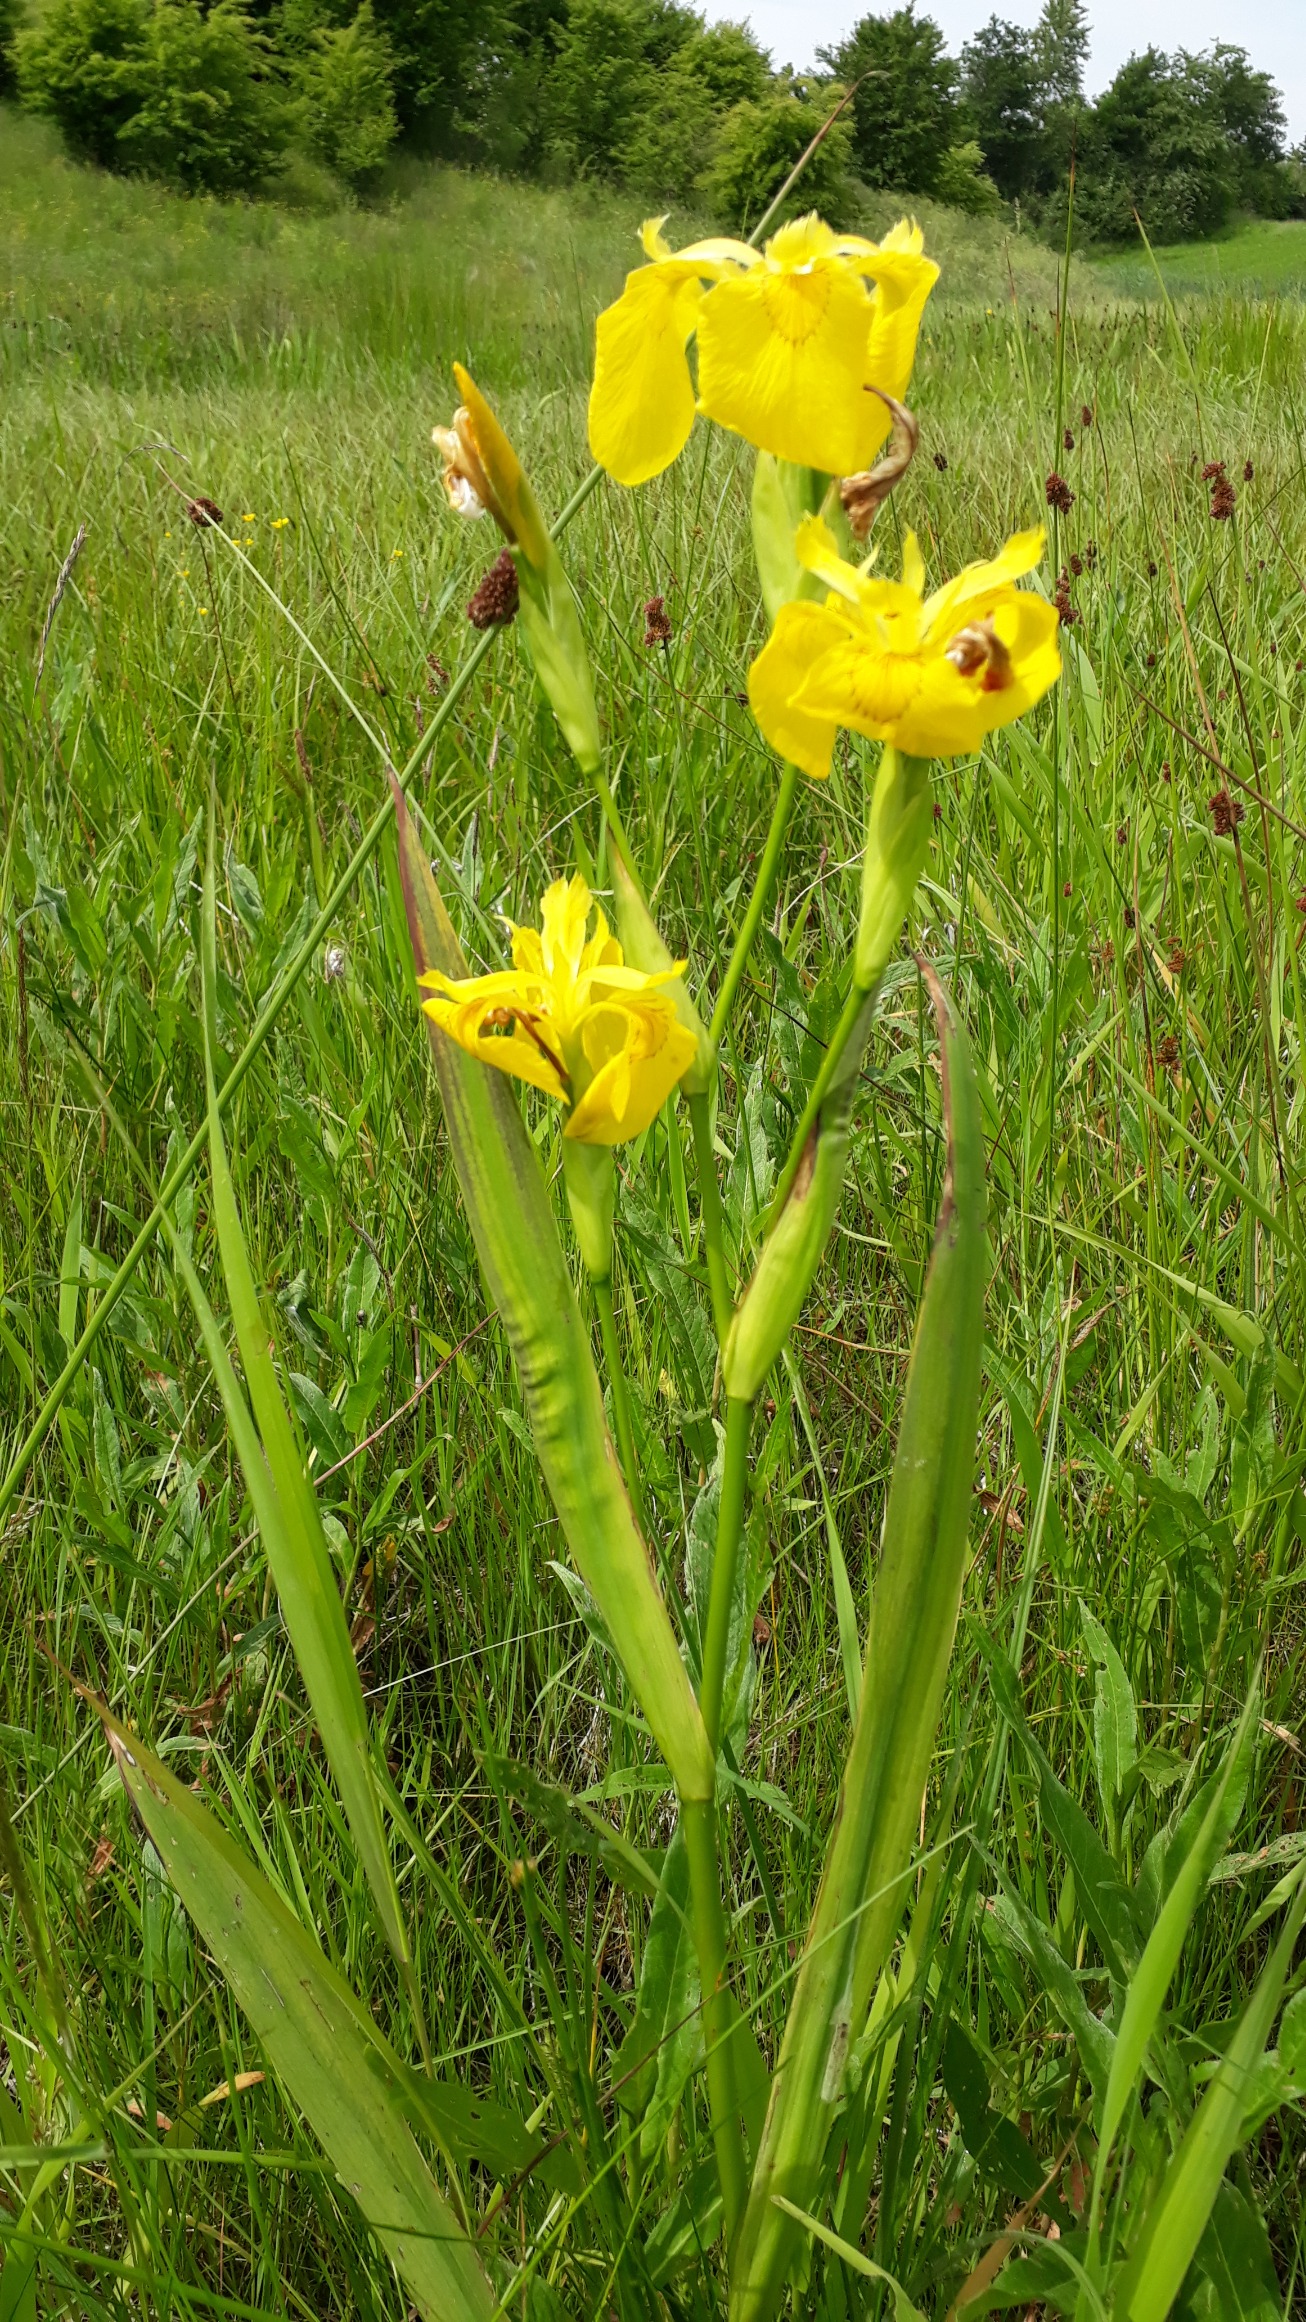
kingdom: Plantae
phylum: Tracheophyta
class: Liliopsida
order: Asparagales
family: Iridaceae
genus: Iris
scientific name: Iris pseudacorus
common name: Gul iris
